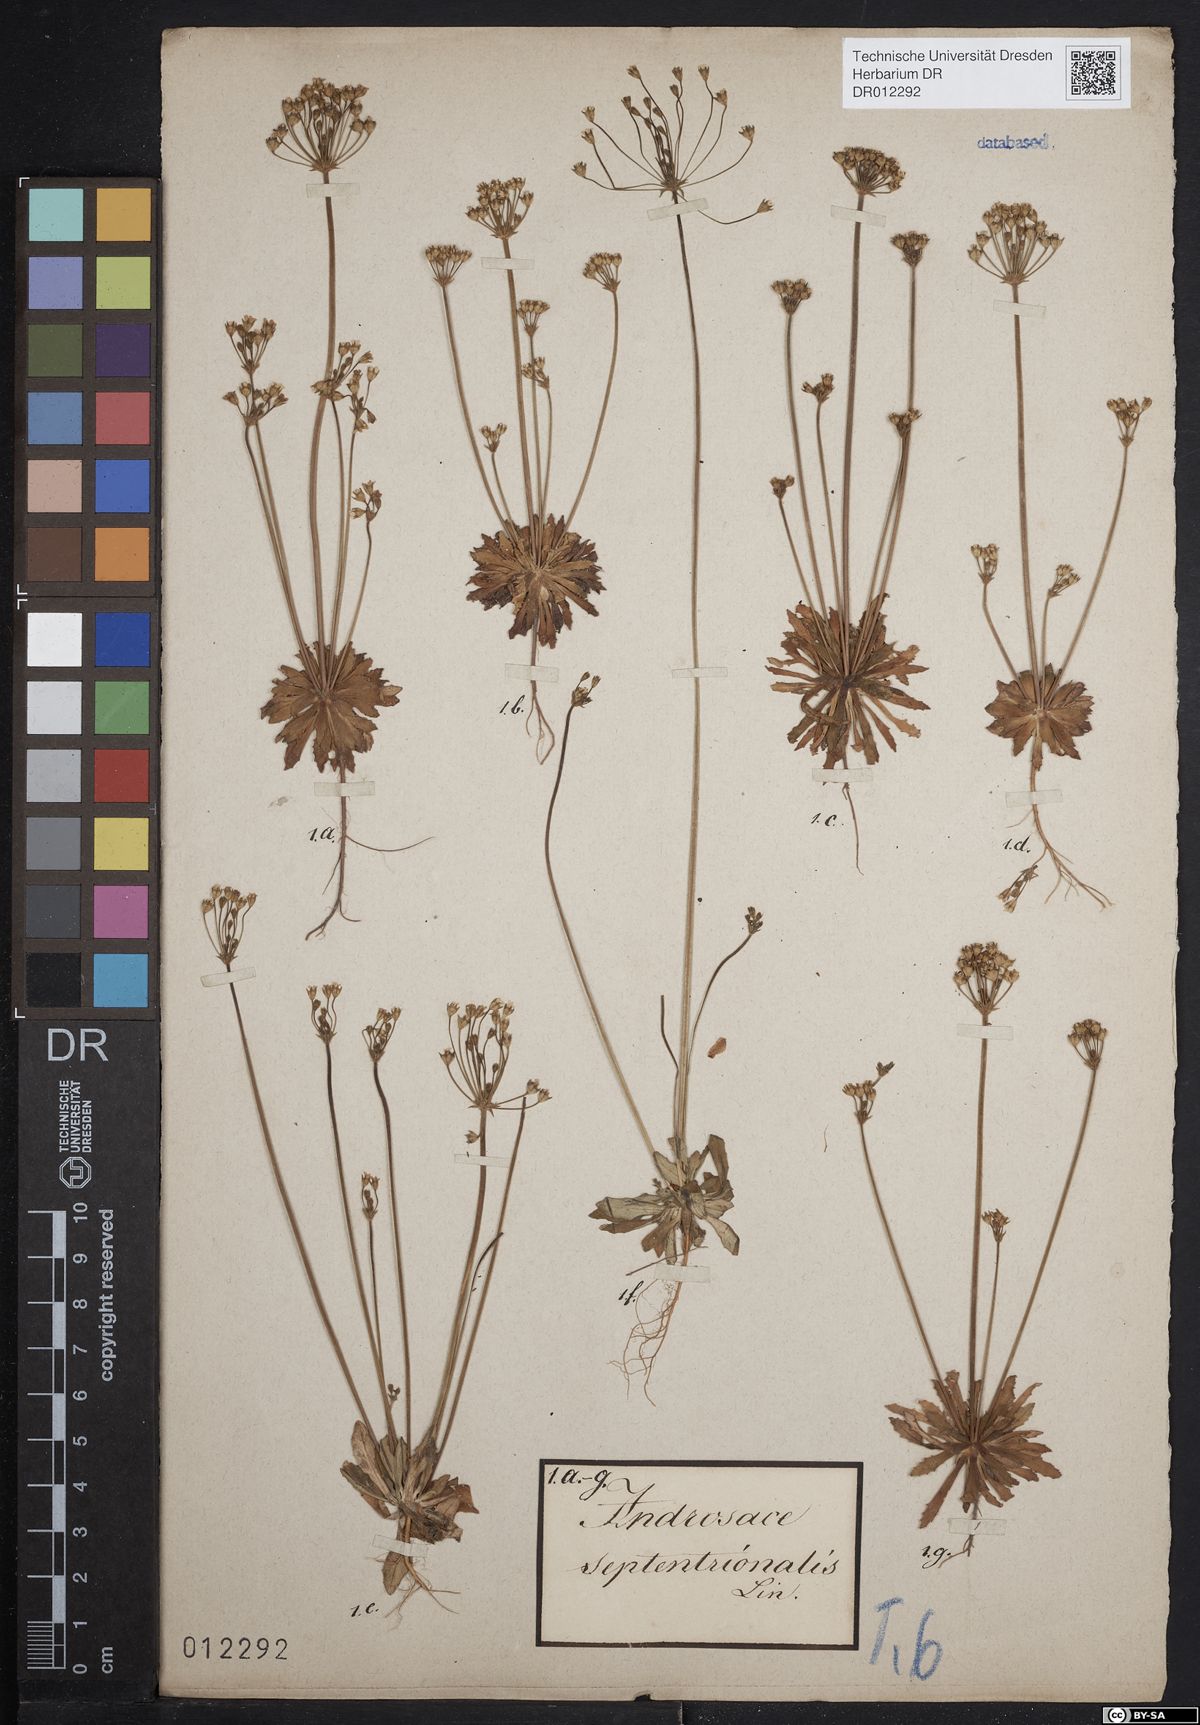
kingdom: Plantae
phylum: Tracheophyta
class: Magnoliopsida
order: Ericales
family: Primulaceae
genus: Androsace
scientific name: Androsace septentrionalis
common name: Hairy northern fairy-candelabra
